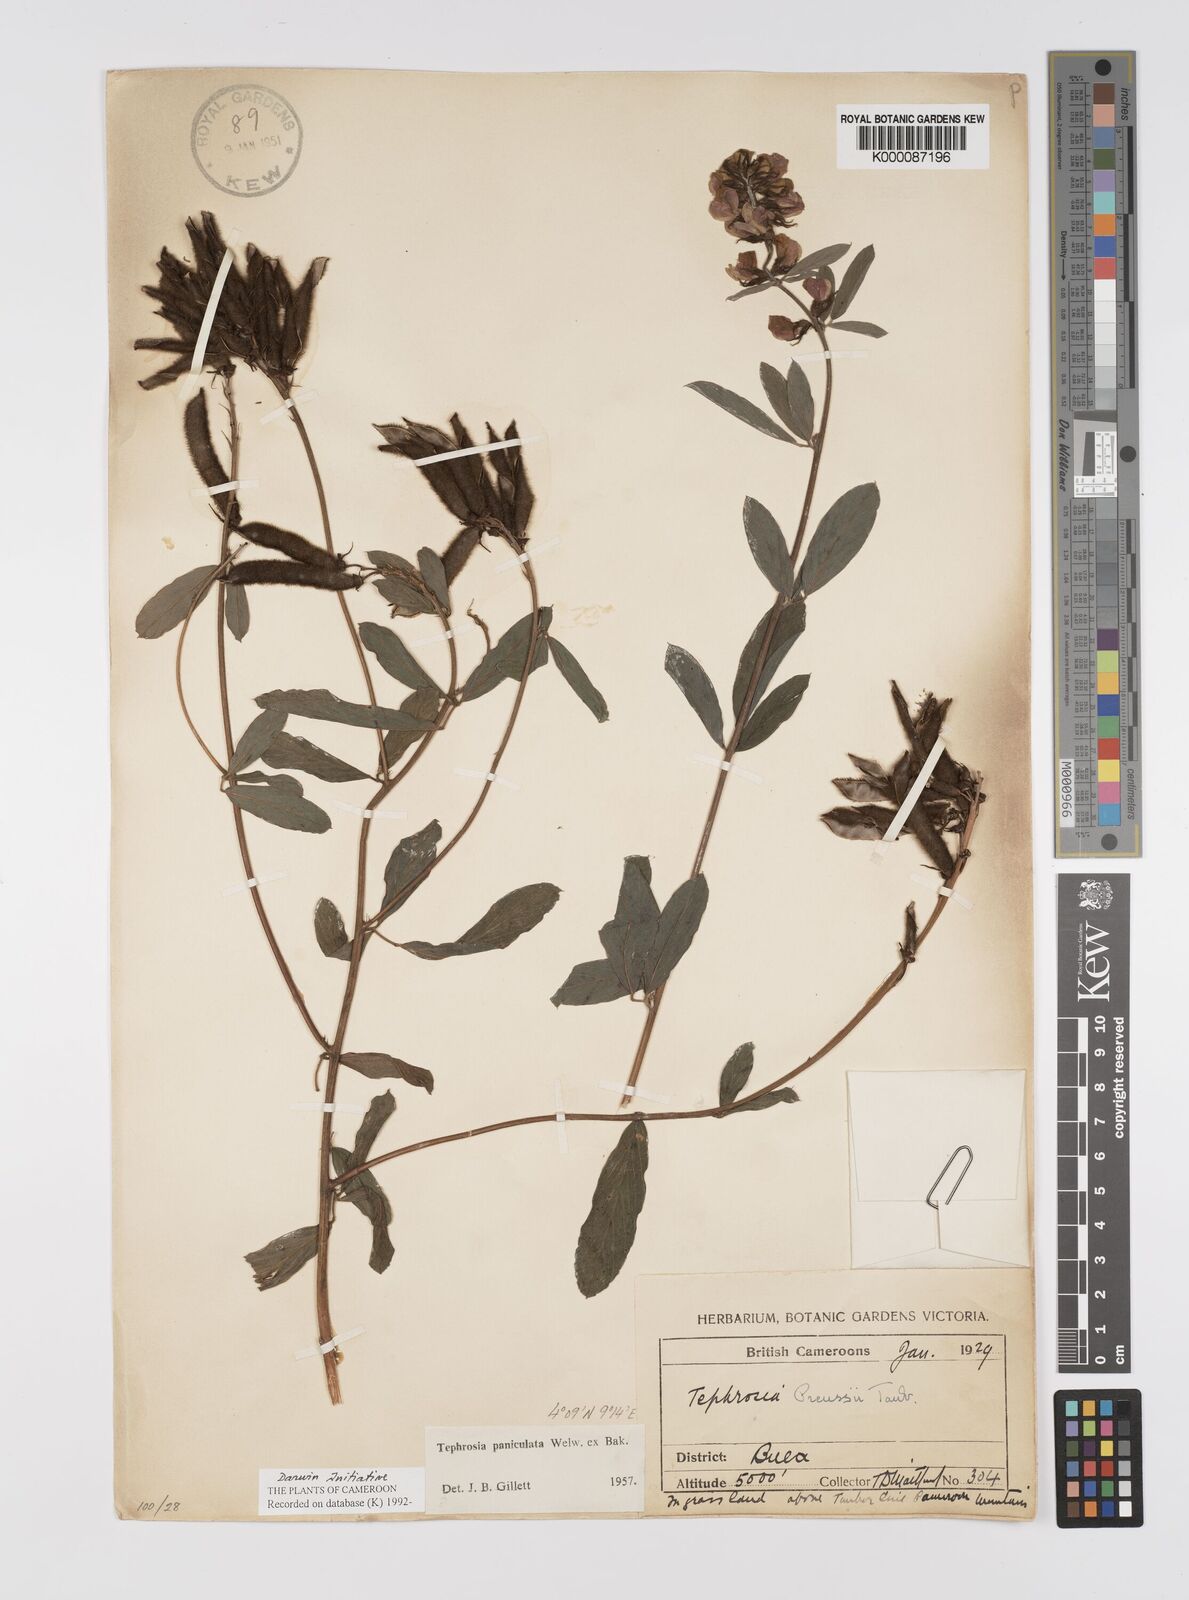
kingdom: Plantae
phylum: Tracheophyta
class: Magnoliopsida
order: Fabales
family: Fabaceae
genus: Tephrosia
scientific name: Tephrosia paniculata
